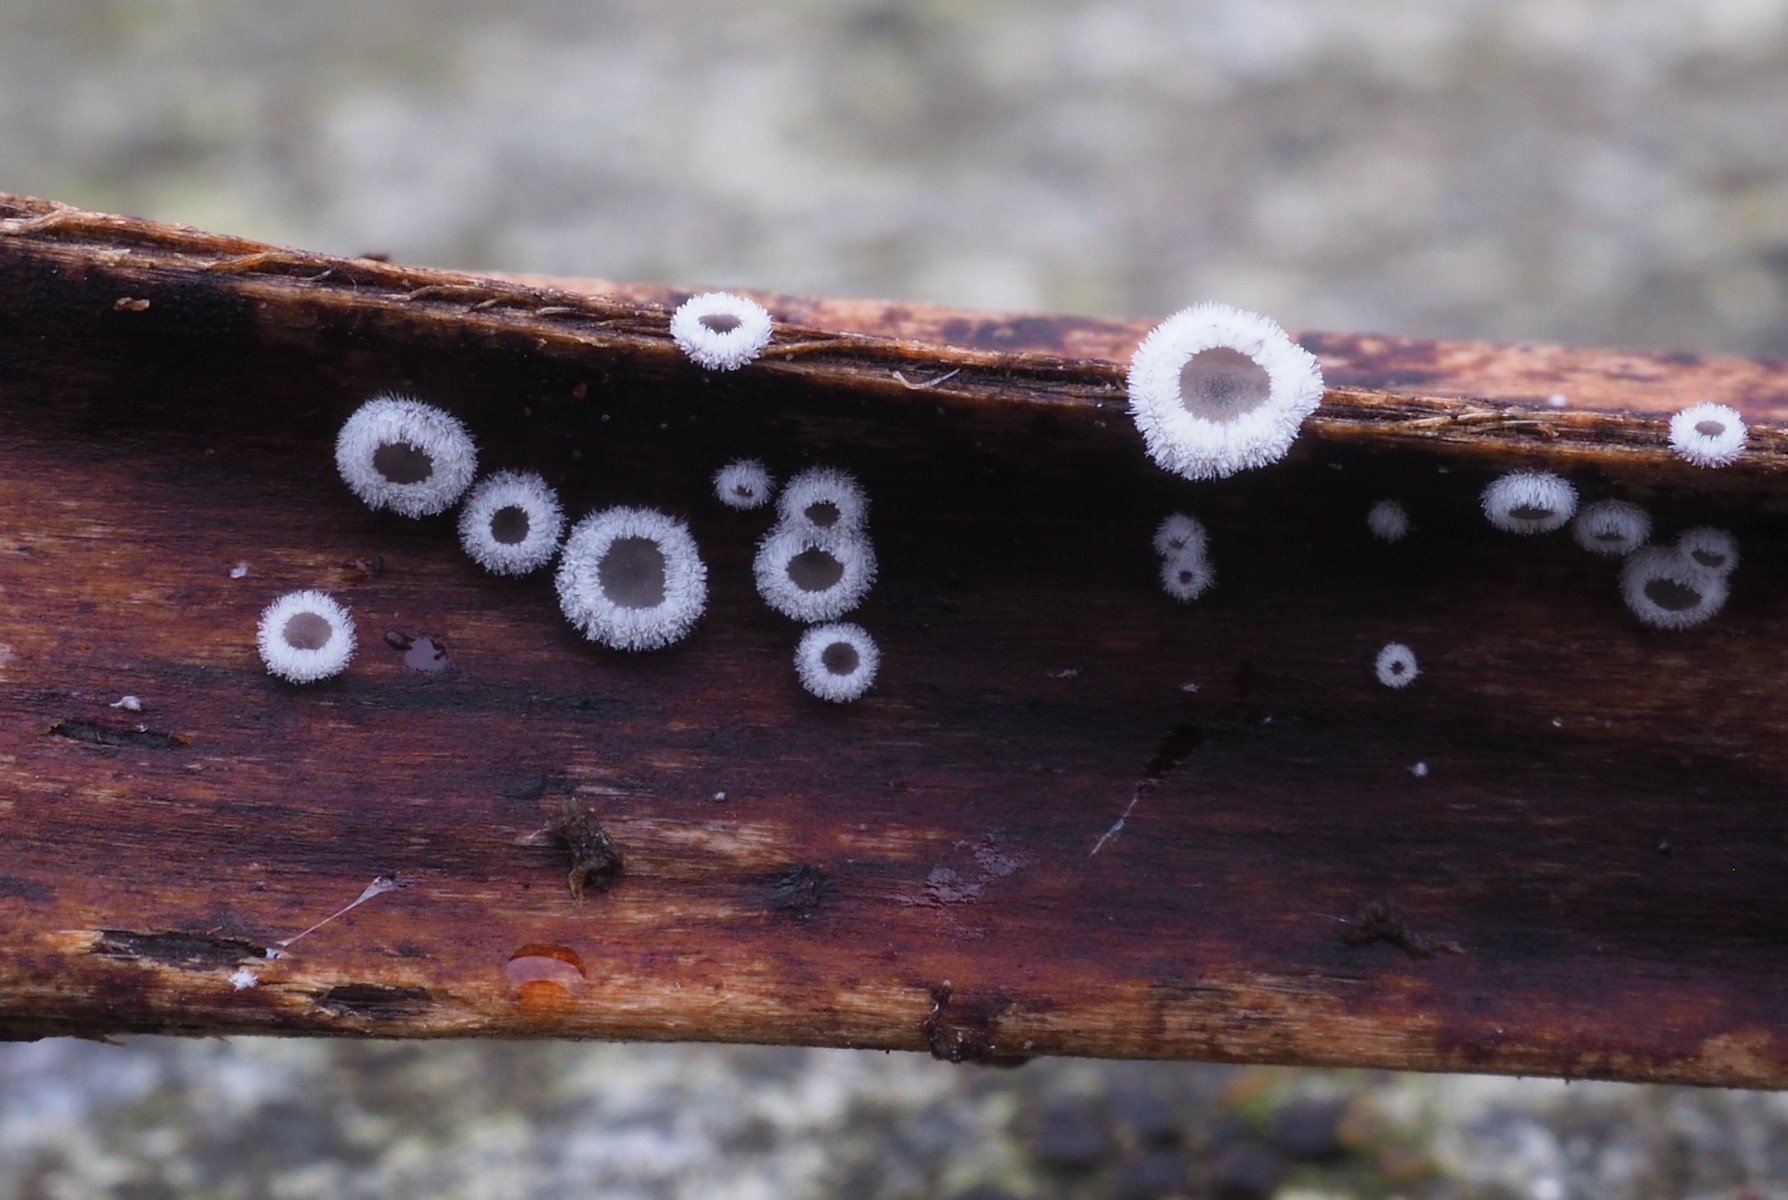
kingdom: Fungi
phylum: Basidiomycota
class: Agaricomycetes
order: Agaricales
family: Niaceae
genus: Lachnella
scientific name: Lachnella alboviolascens
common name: grå frynserede
